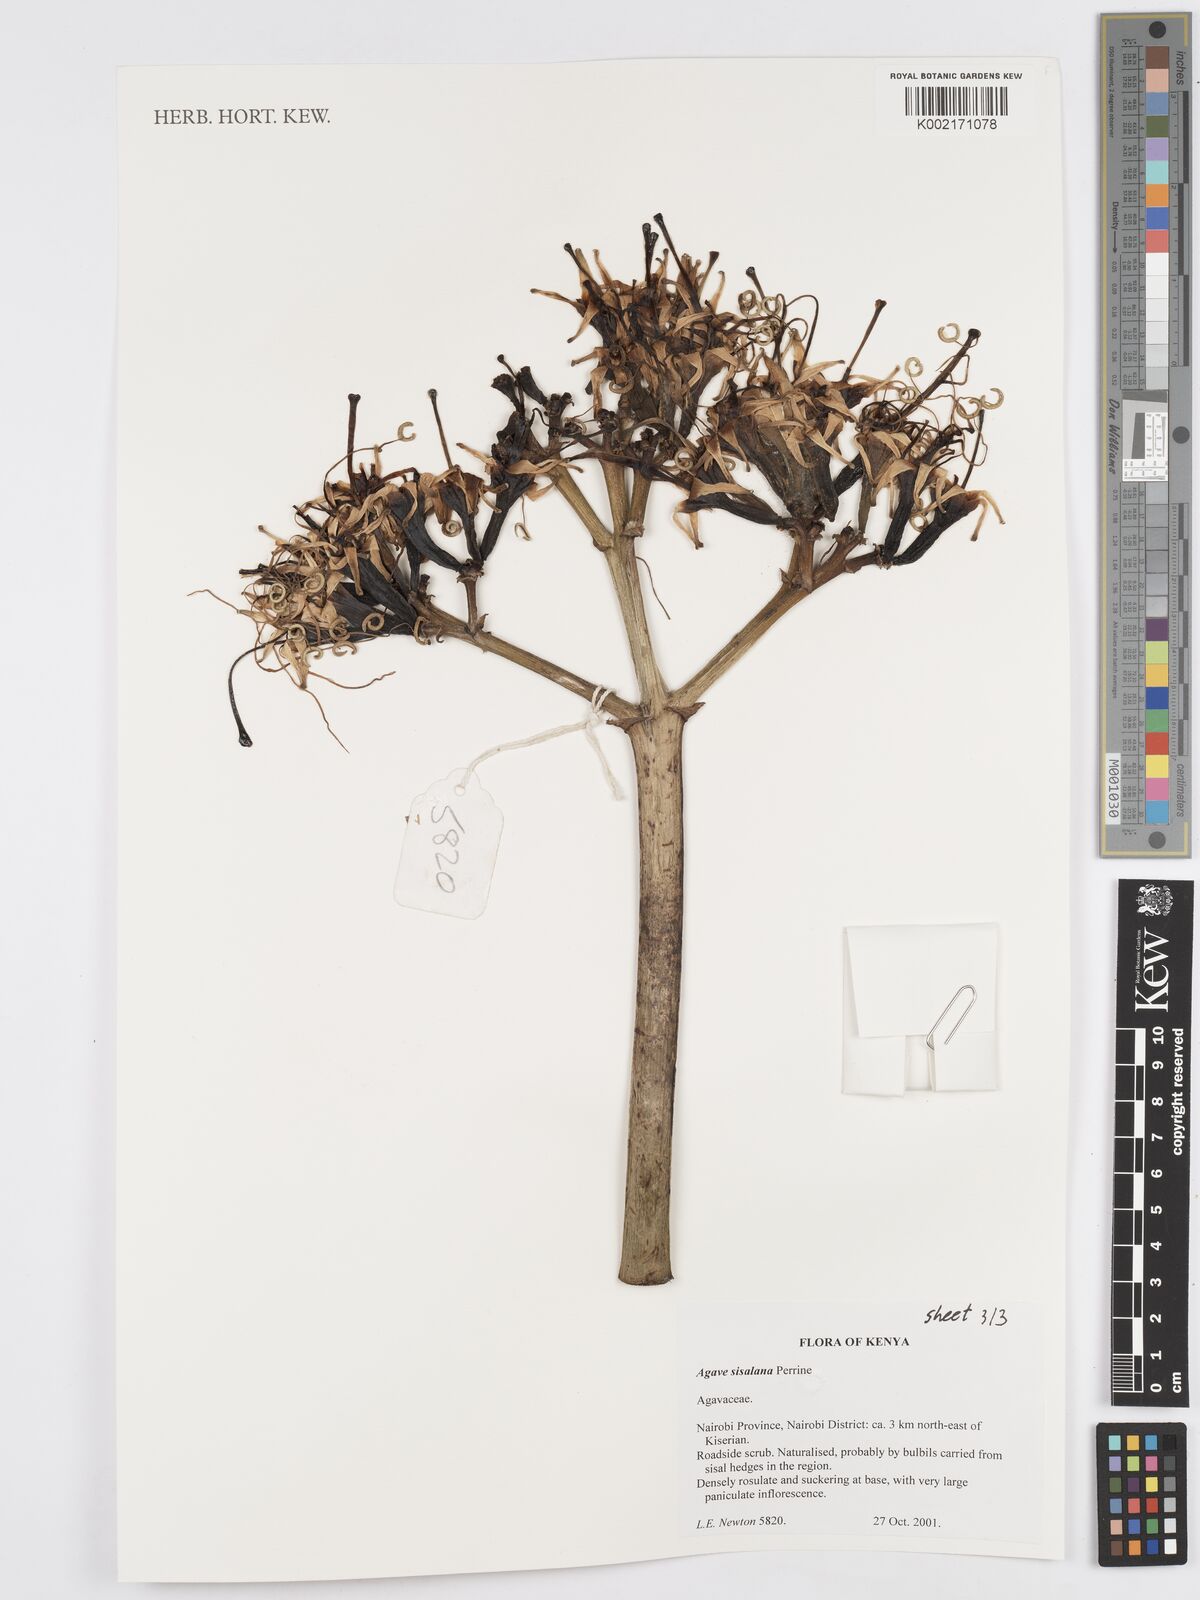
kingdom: Plantae
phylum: Tracheophyta
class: Liliopsida
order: Asparagales
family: Asparagaceae
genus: Agave
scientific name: Agave sisalana
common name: Sisal hemp
